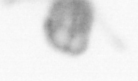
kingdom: Animalia
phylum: Annelida
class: Polychaeta
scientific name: Polychaeta
